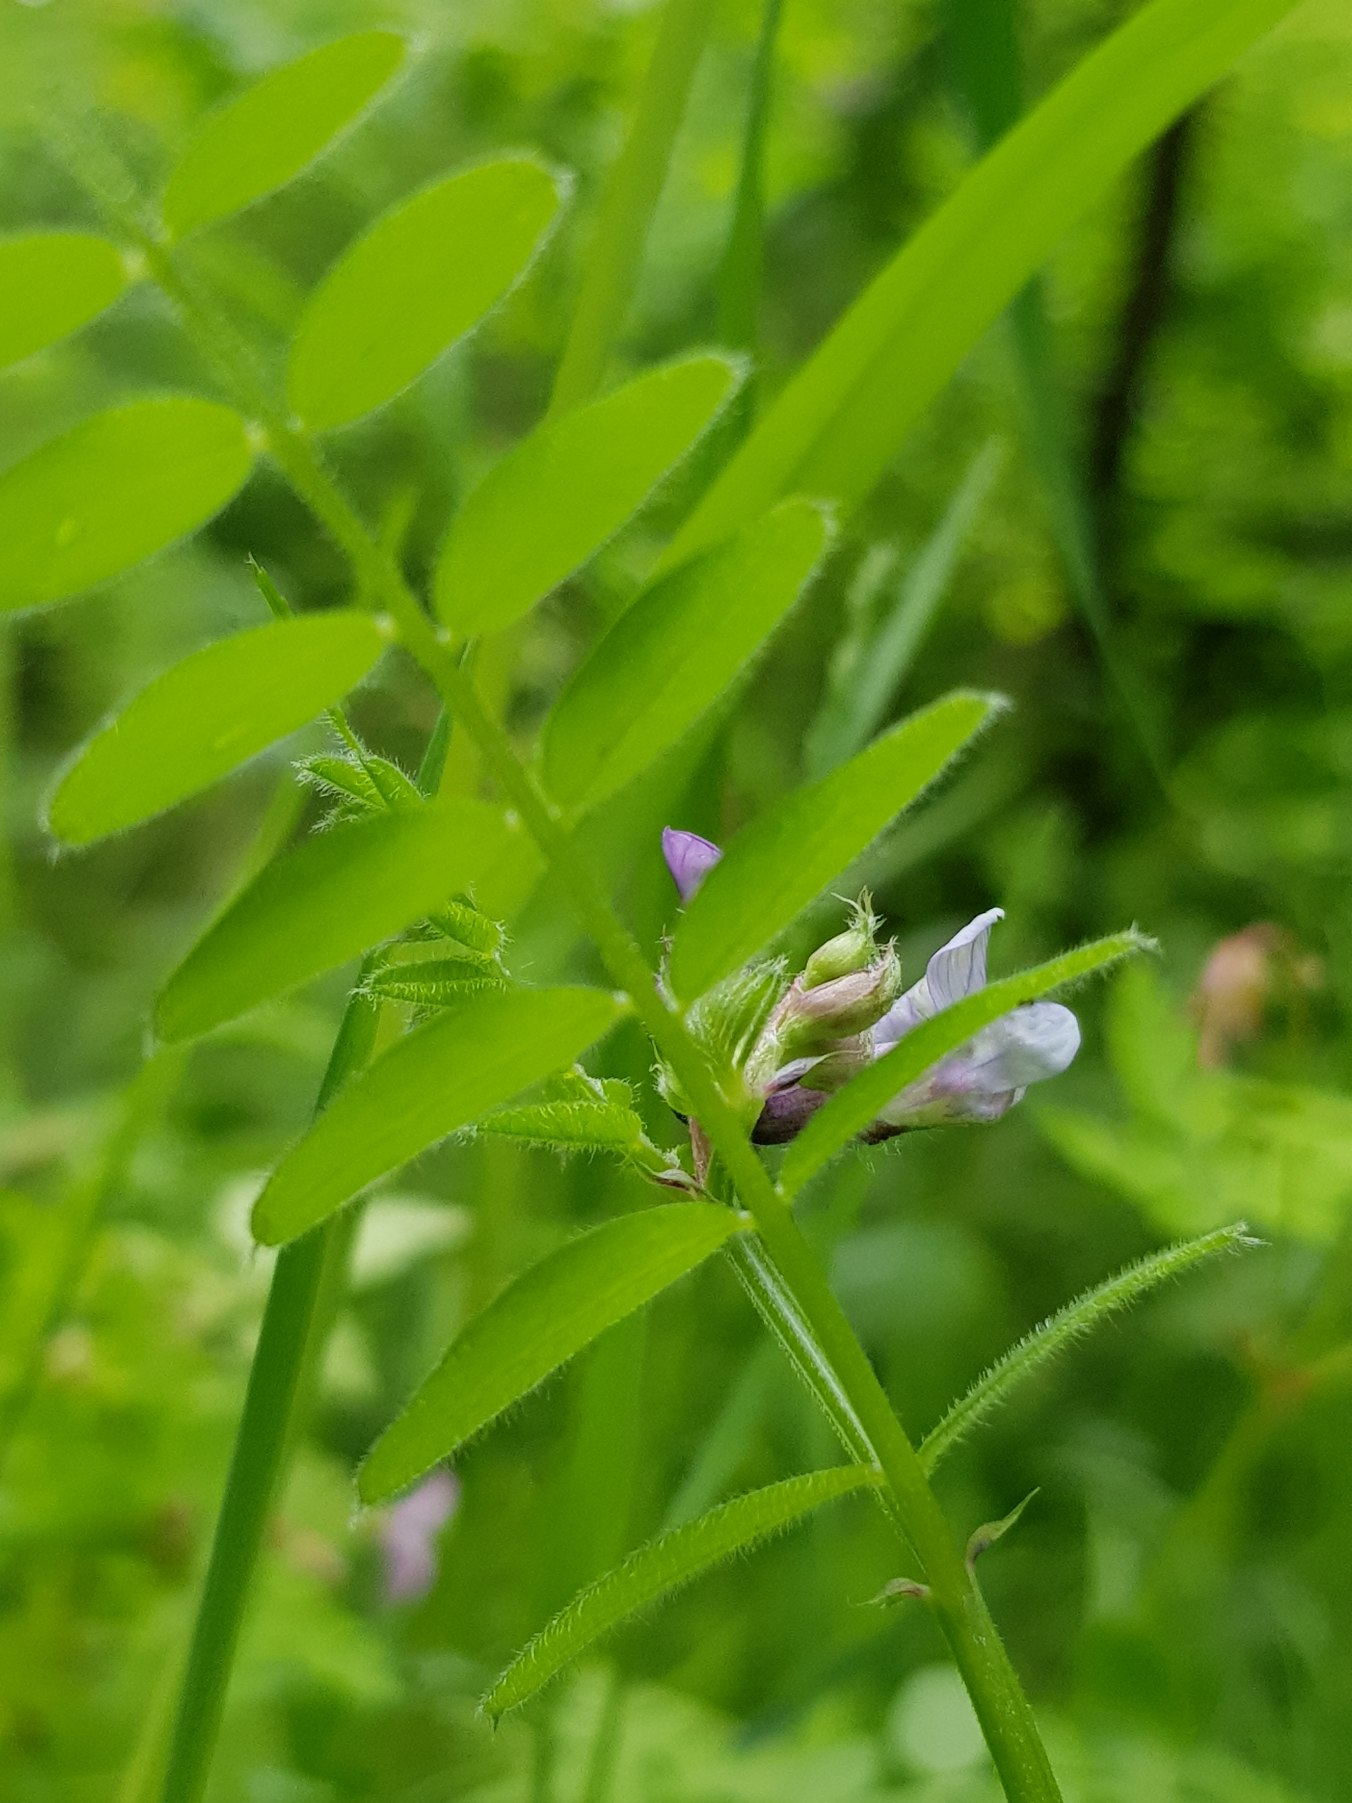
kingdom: Plantae
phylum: Tracheophyta
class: Magnoliopsida
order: Fabales
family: Fabaceae
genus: Vicia
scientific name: Vicia sepium
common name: Gærde-vikke
